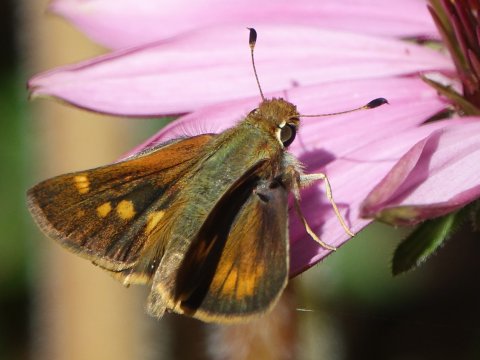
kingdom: Animalia
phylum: Arthropoda
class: Insecta
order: Lepidoptera
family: Hesperiidae
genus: Lon
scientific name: Lon melane
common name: Umber Skipper
